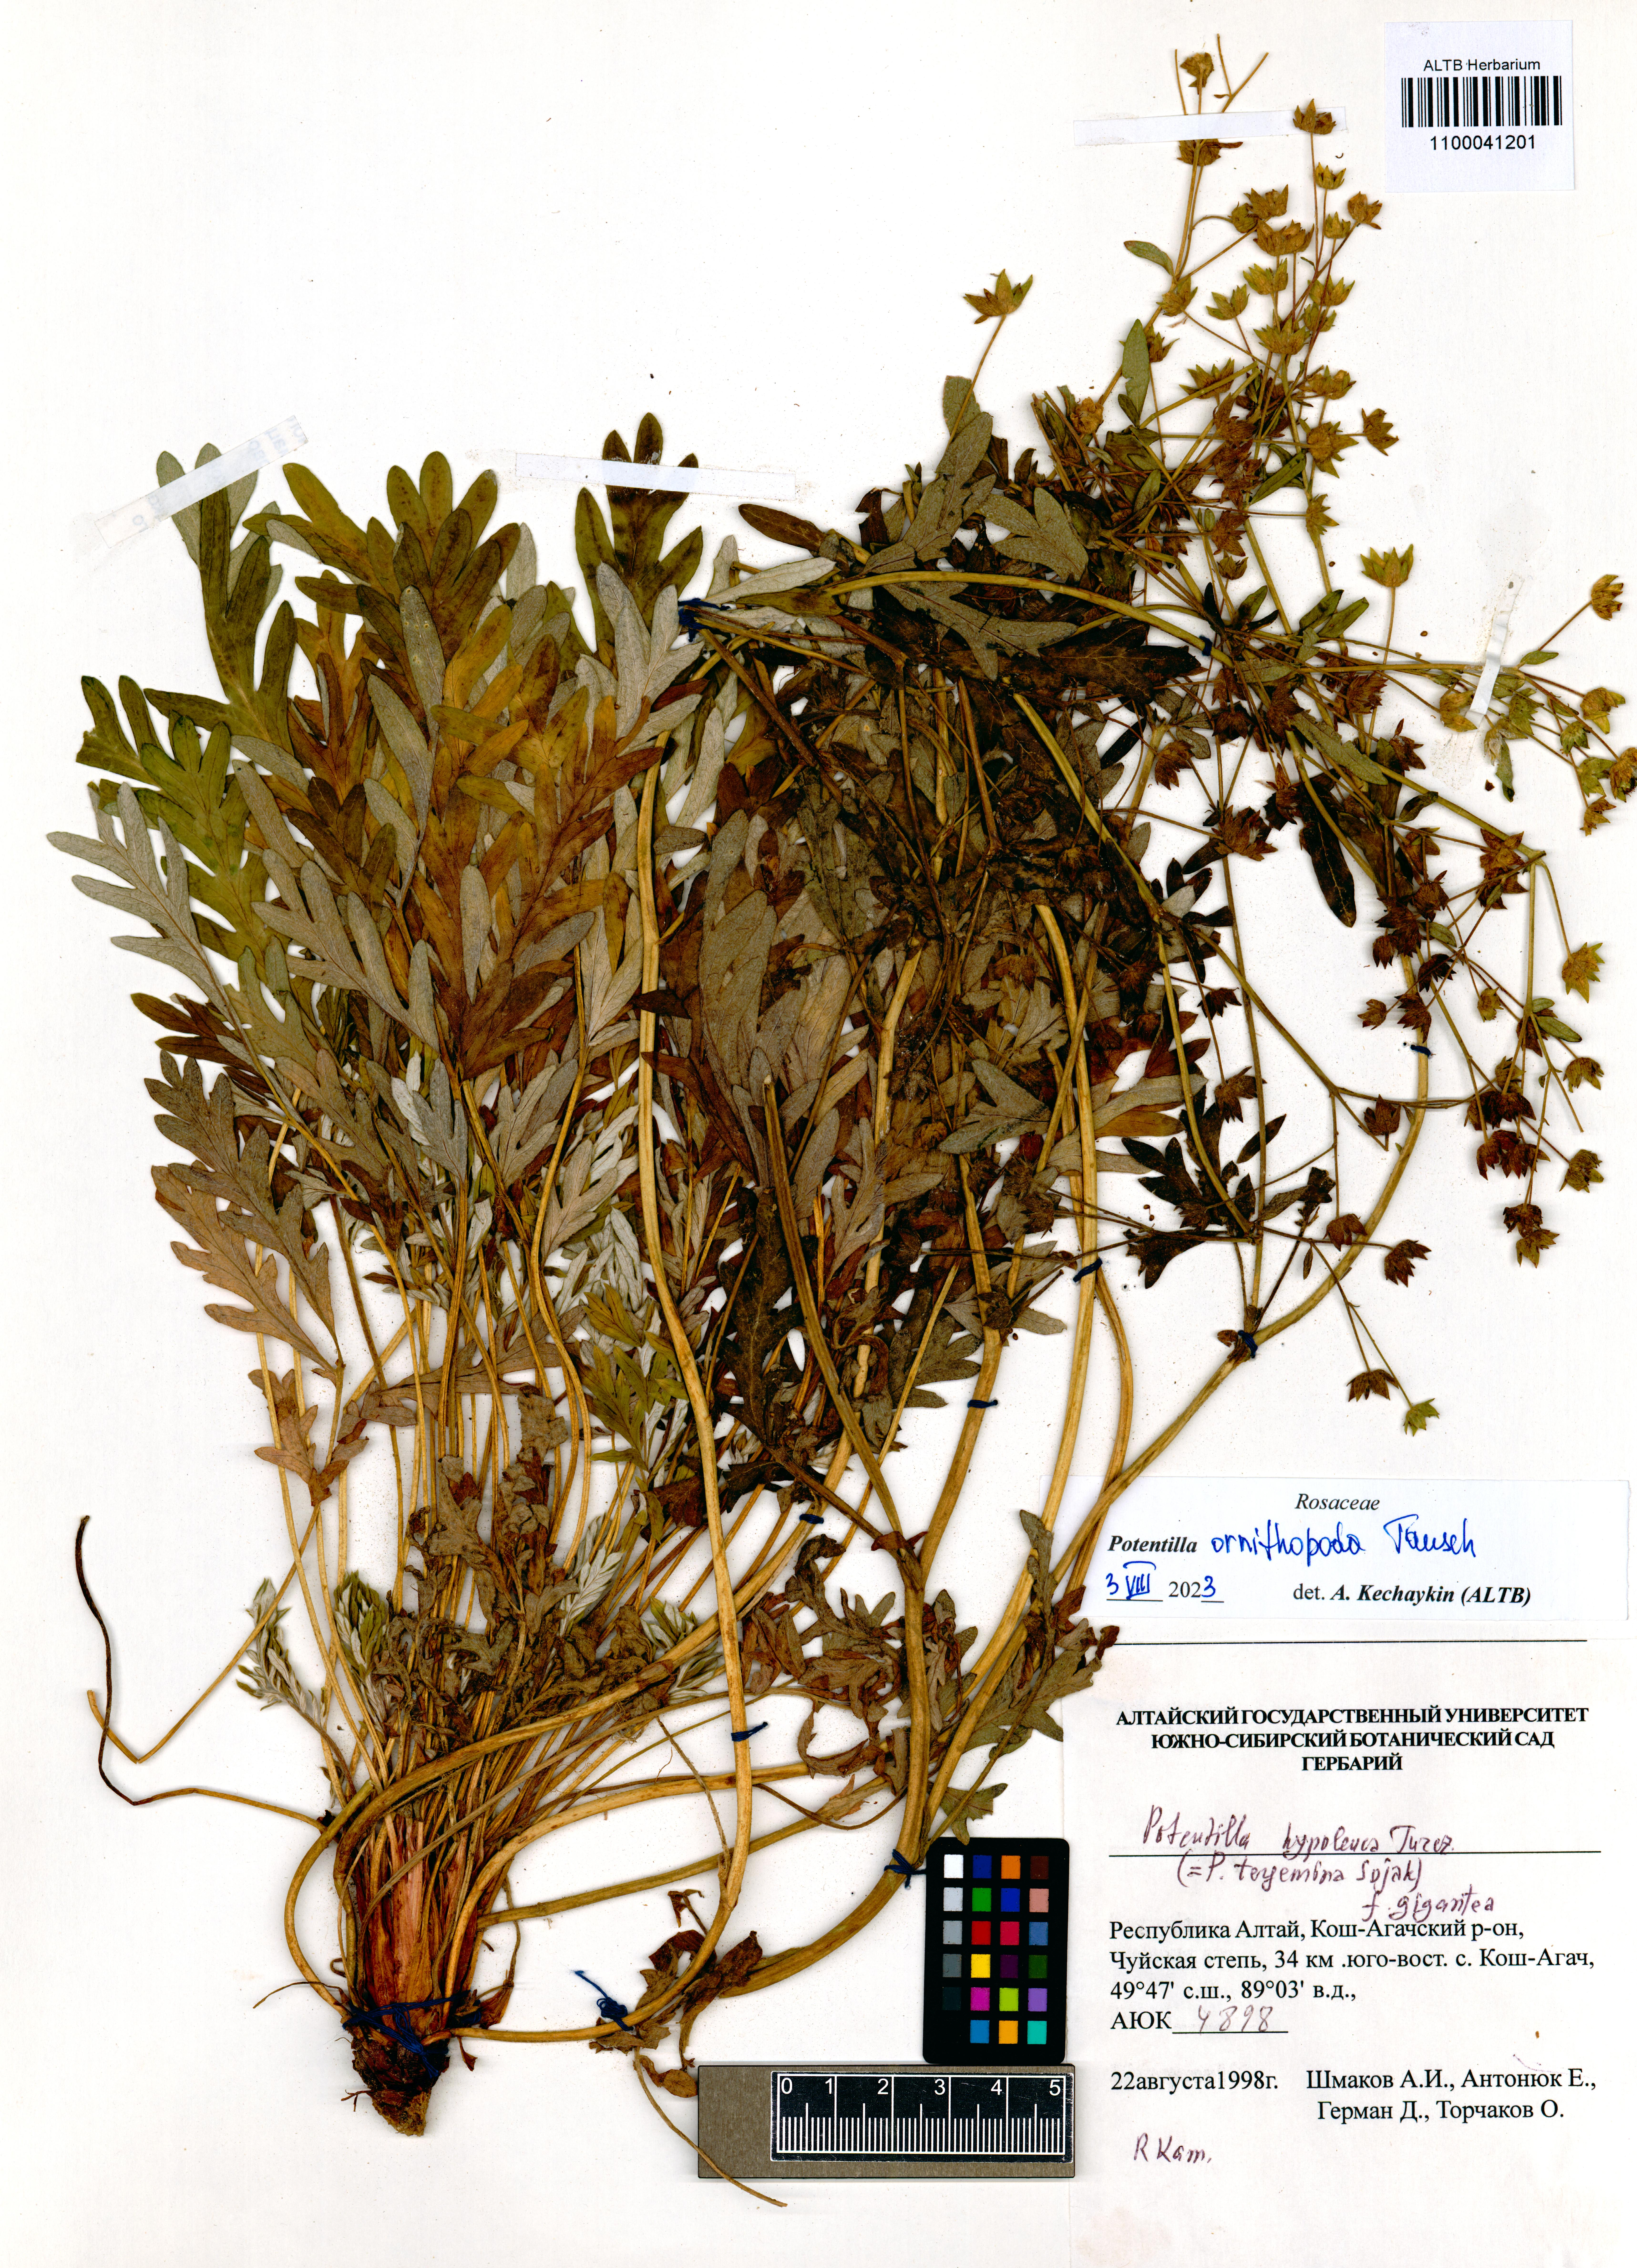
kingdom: Plantae
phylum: Tracheophyta
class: Magnoliopsida
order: Rosales
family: Rosaceae
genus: Potentilla
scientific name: Potentilla ornithopoda
